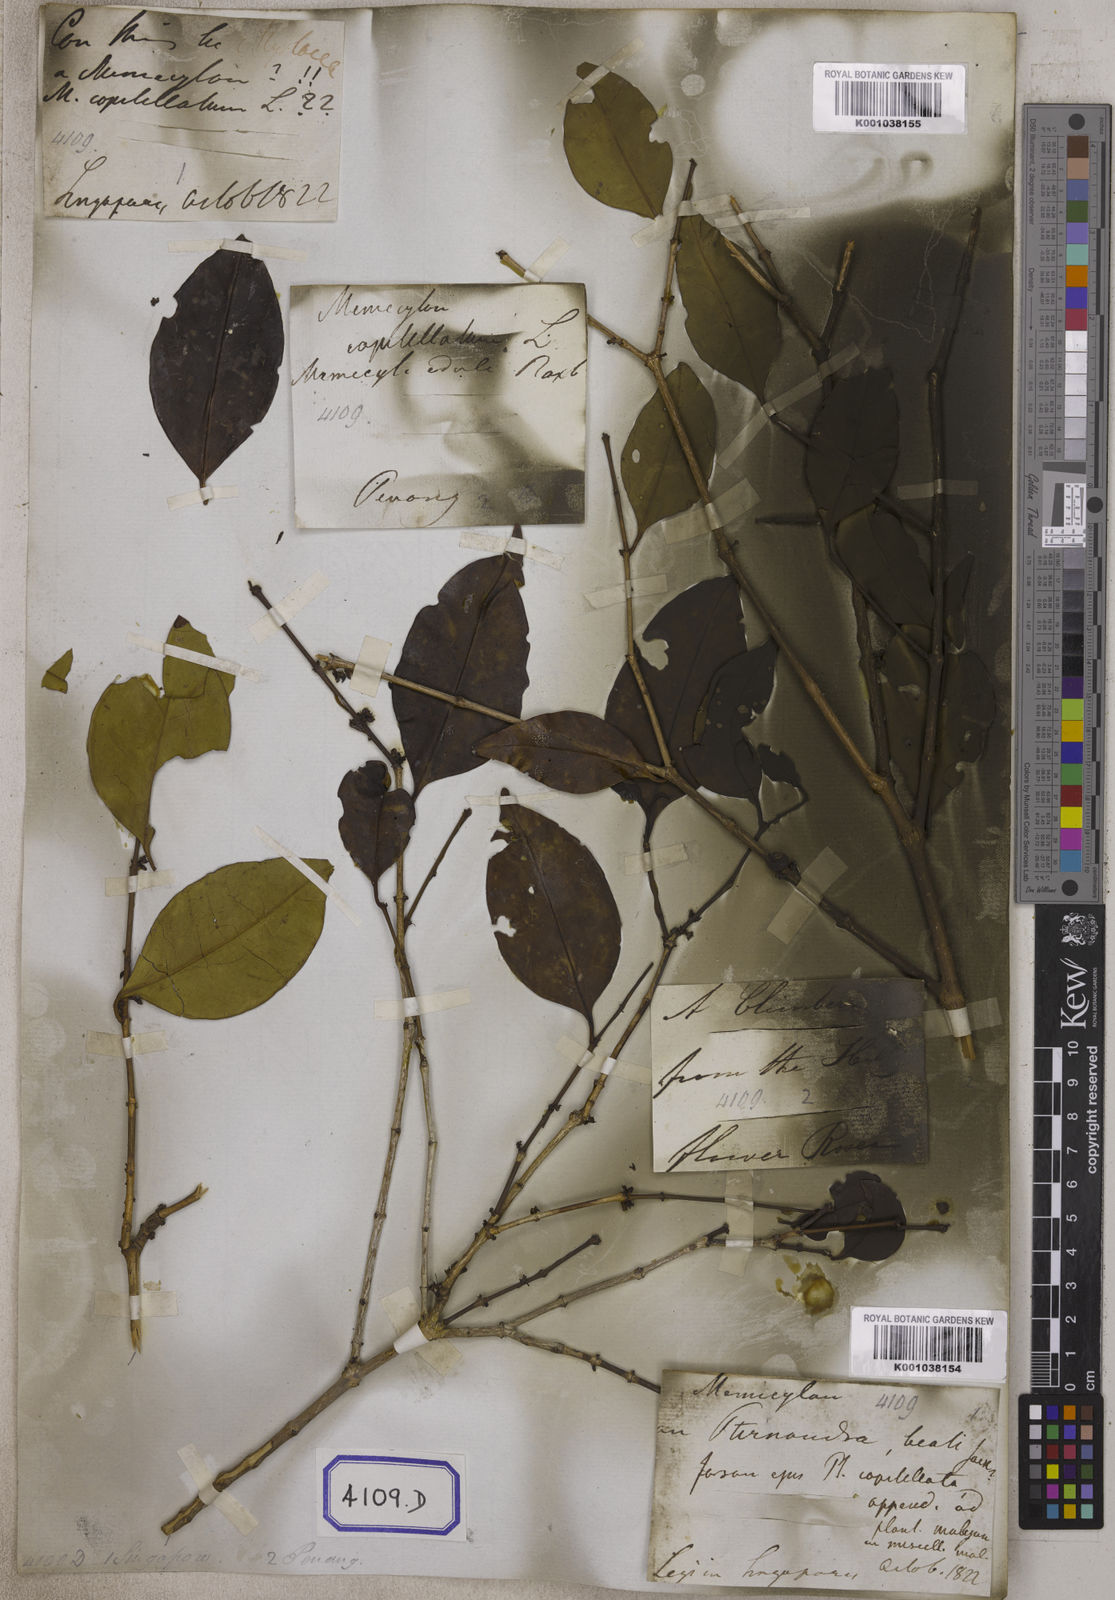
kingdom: Plantae
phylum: Tracheophyta
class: Magnoliopsida
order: Myrtales
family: Melastomataceae
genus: Memecylon
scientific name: Memecylon umbellatum
